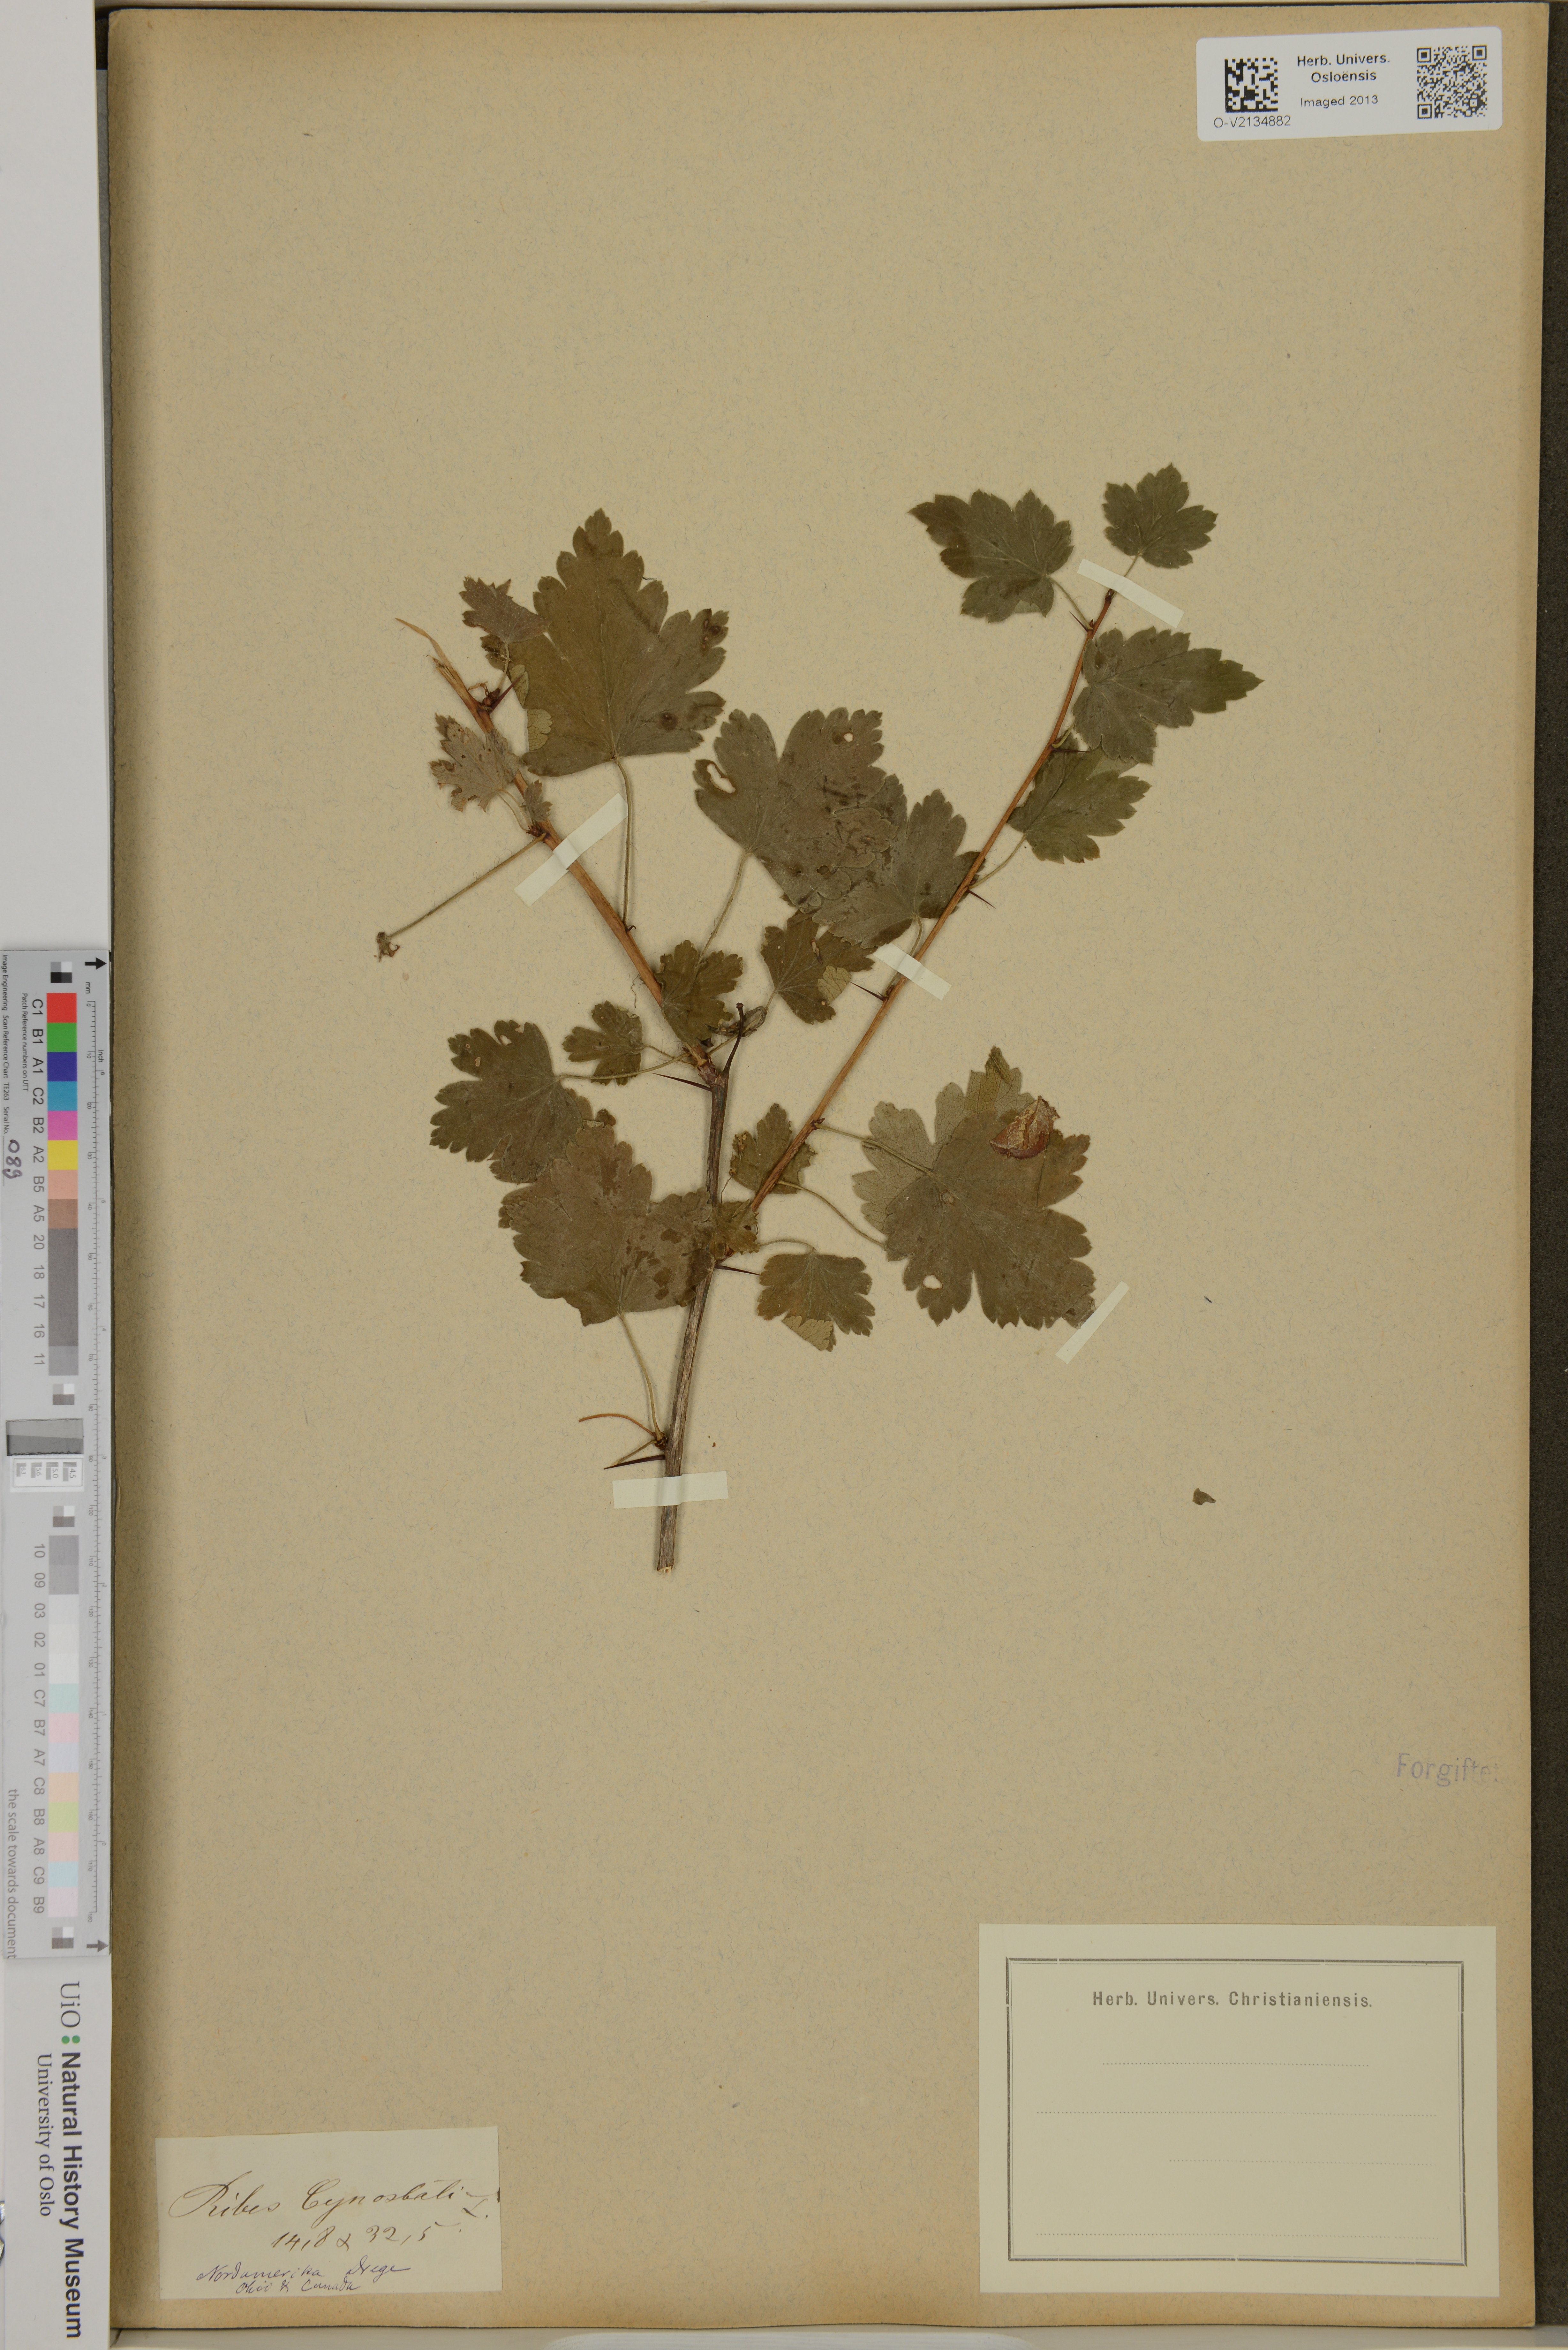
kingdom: Plantae
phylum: Tracheophyta
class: Magnoliopsida
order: Saxifragales
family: Grossulariaceae
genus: Ribes
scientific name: Ribes cynosbati
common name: American gooseberry
